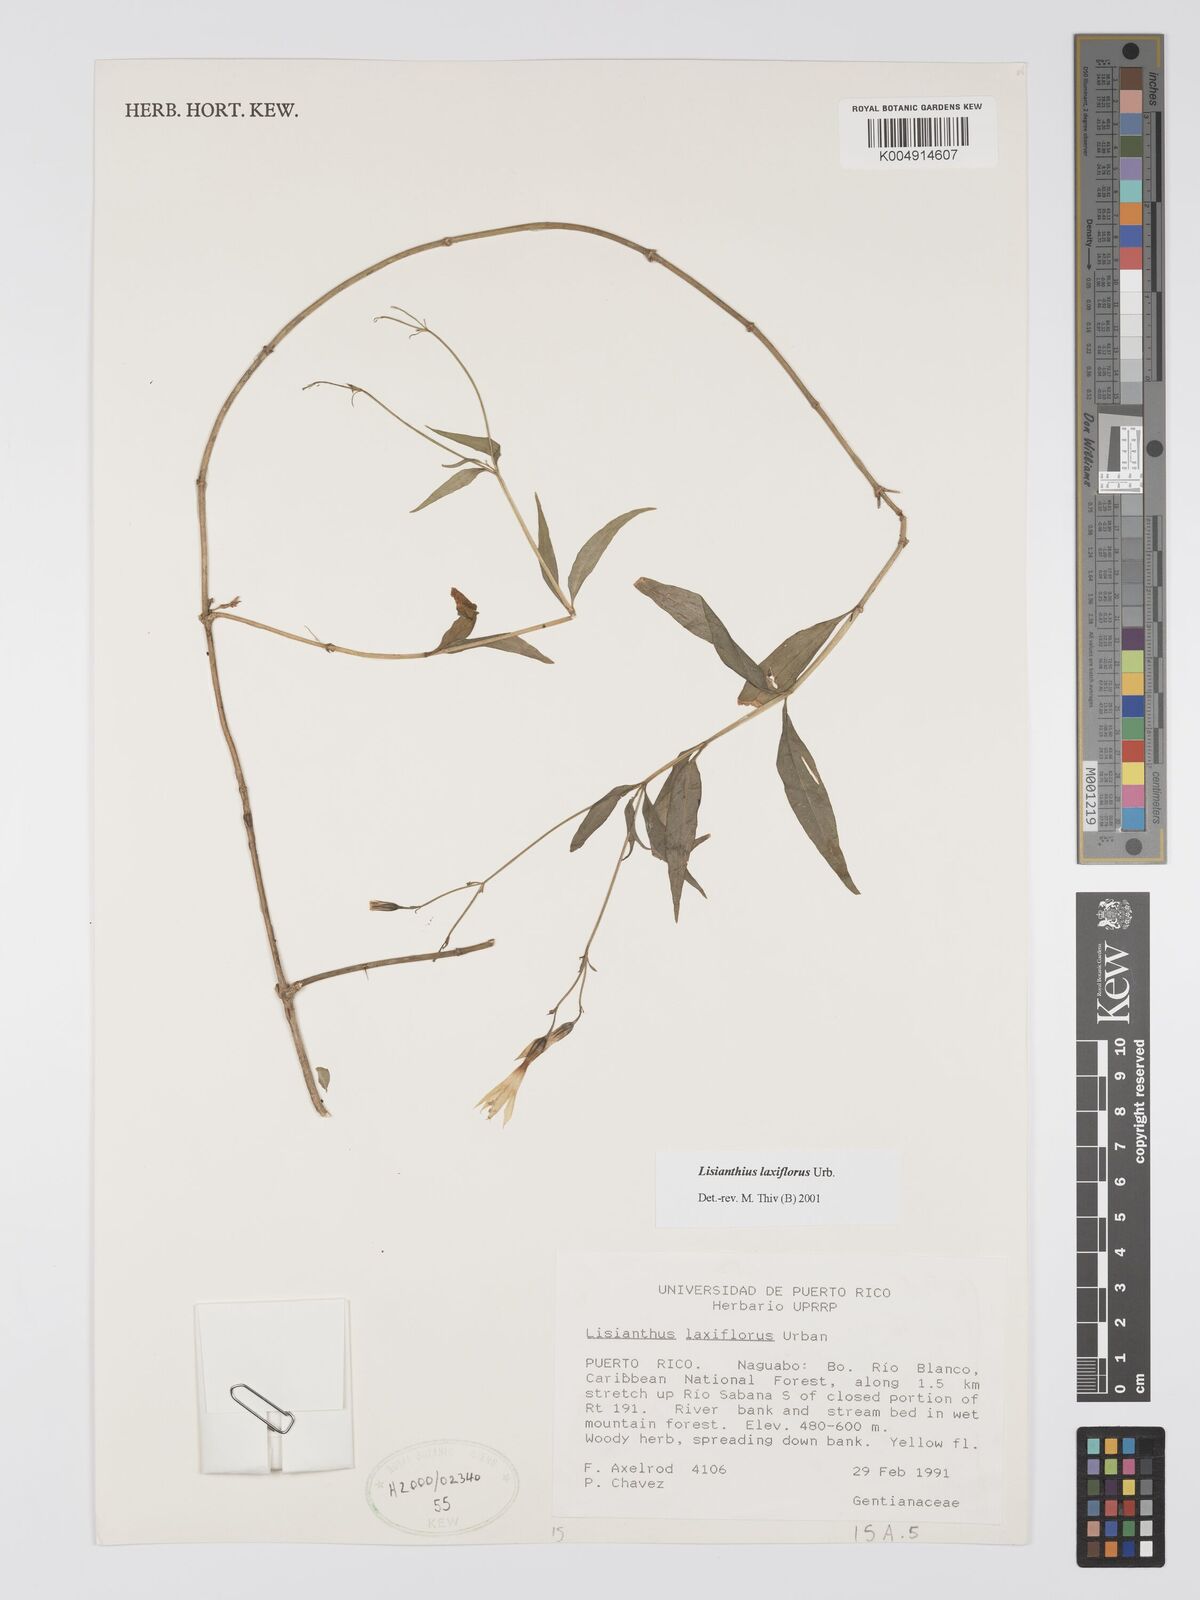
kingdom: Plantae
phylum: Tracheophyta
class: Magnoliopsida
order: Gentianales
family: Gentianaceae
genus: Lisianthius
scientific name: Lisianthius laxiflorus
